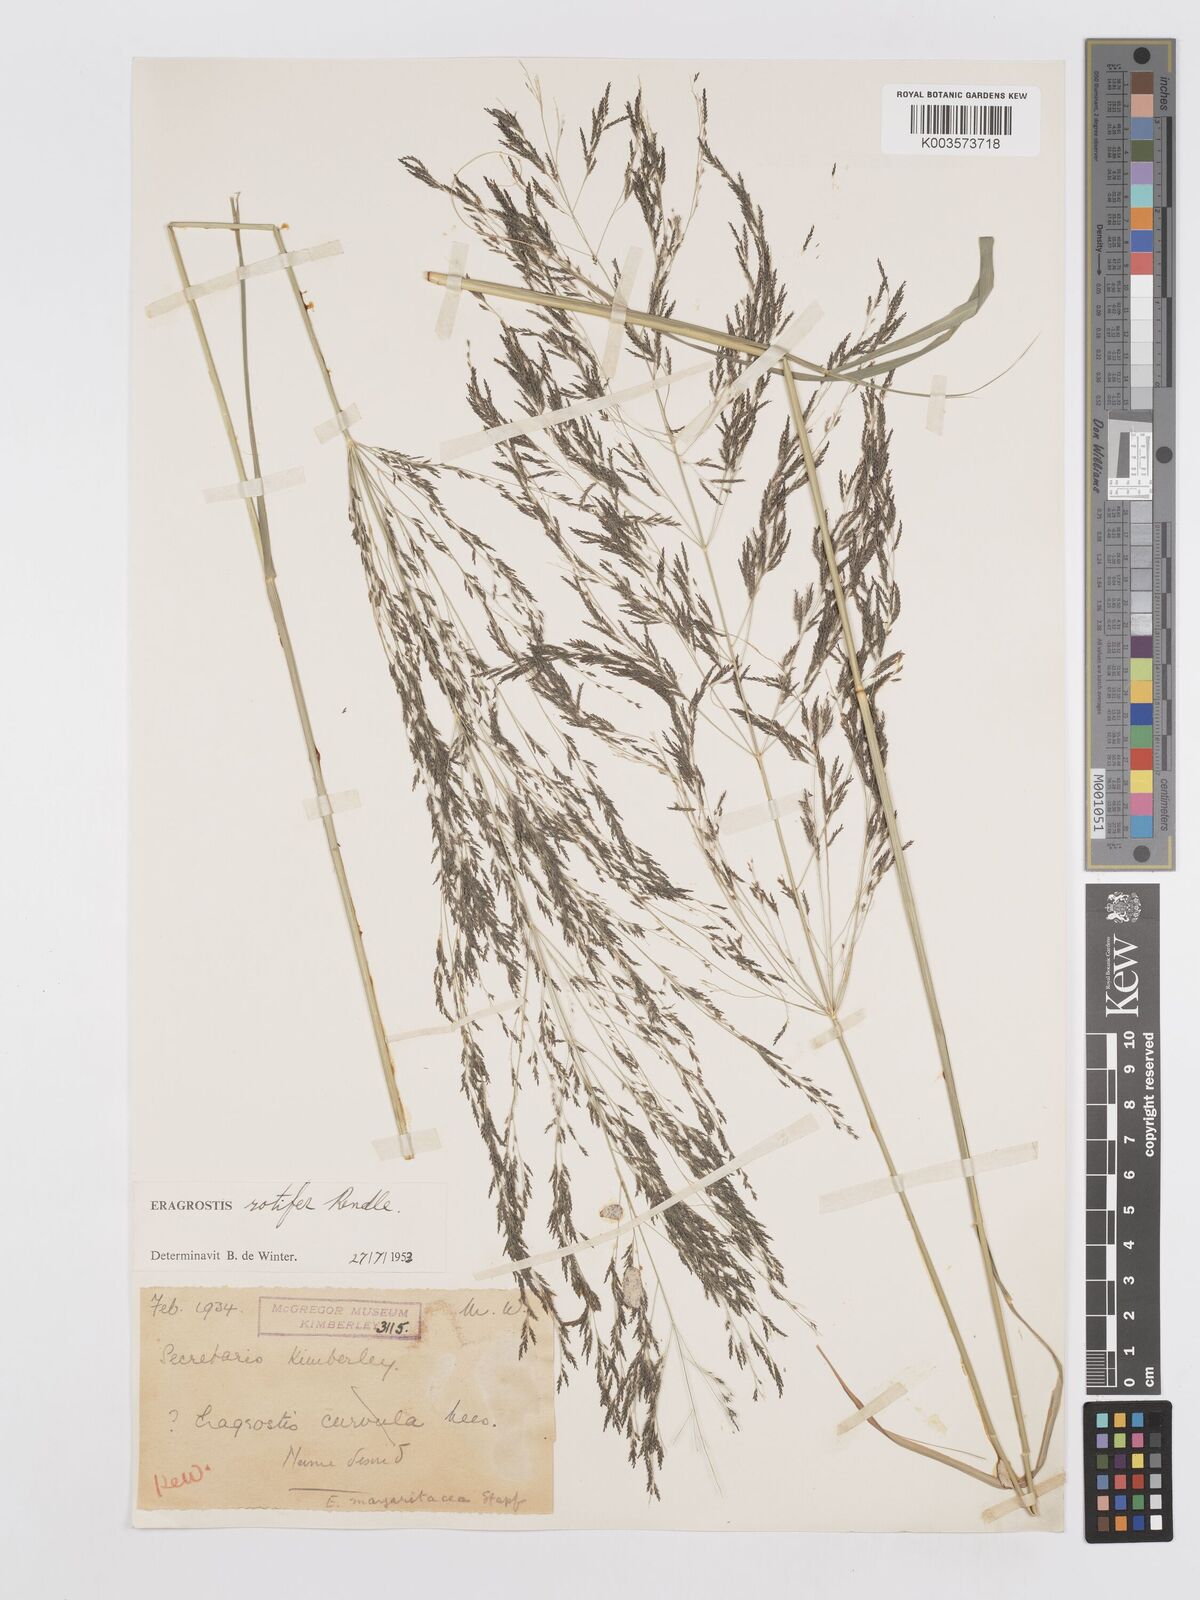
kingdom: Plantae
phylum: Tracheophyta
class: Liliopsida
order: Poales
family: Poaceae
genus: Eragrostis
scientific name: Eragrostis rotifer
